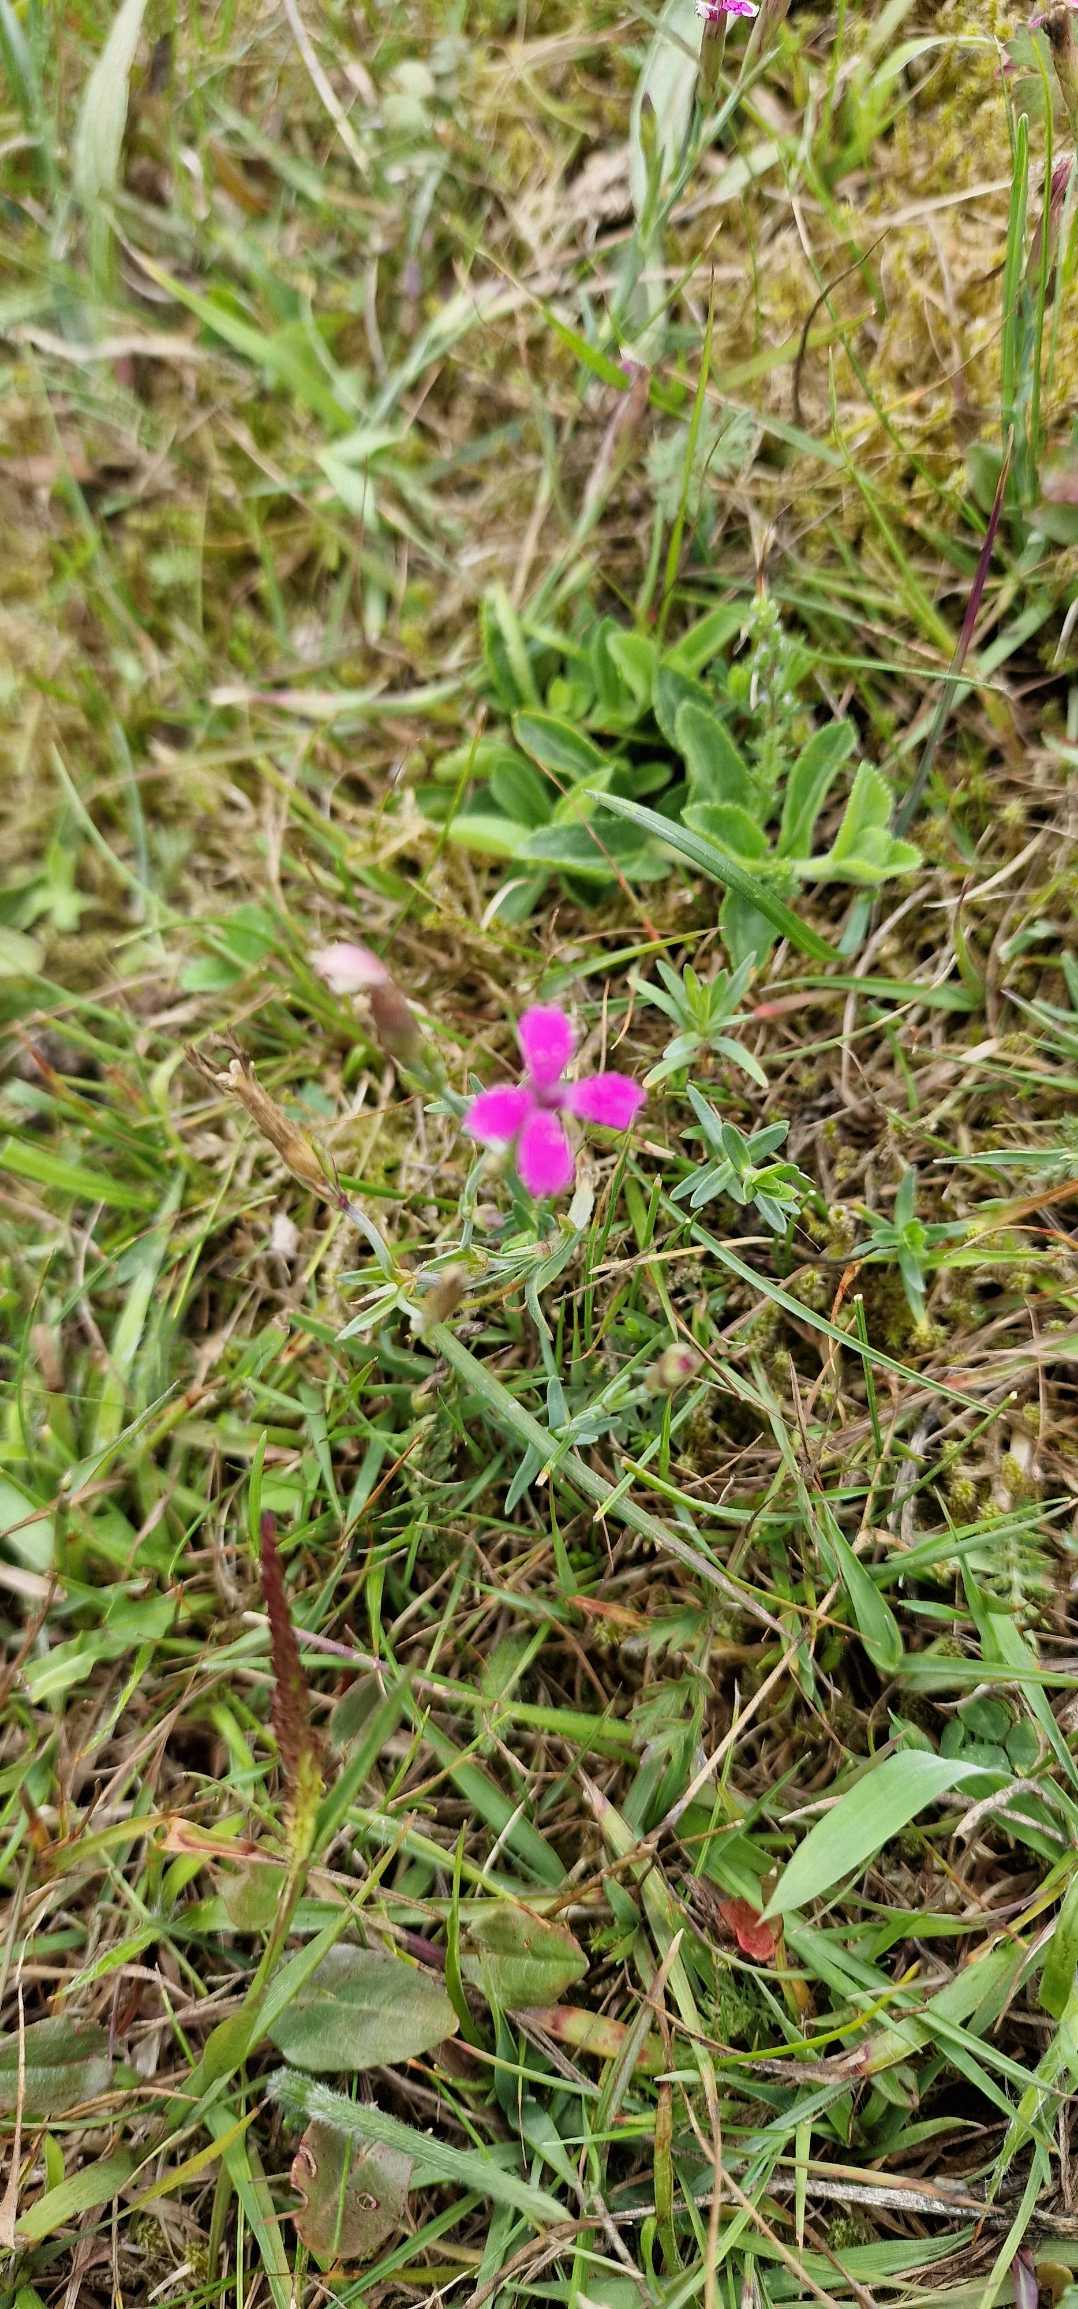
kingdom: Plantae
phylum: Tracheophyta
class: Magnoliopsida
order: Caryophyllales
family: Caryophyllaceae
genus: Dianthus
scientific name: Dianthus deltoides
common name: Bakke-nellike
